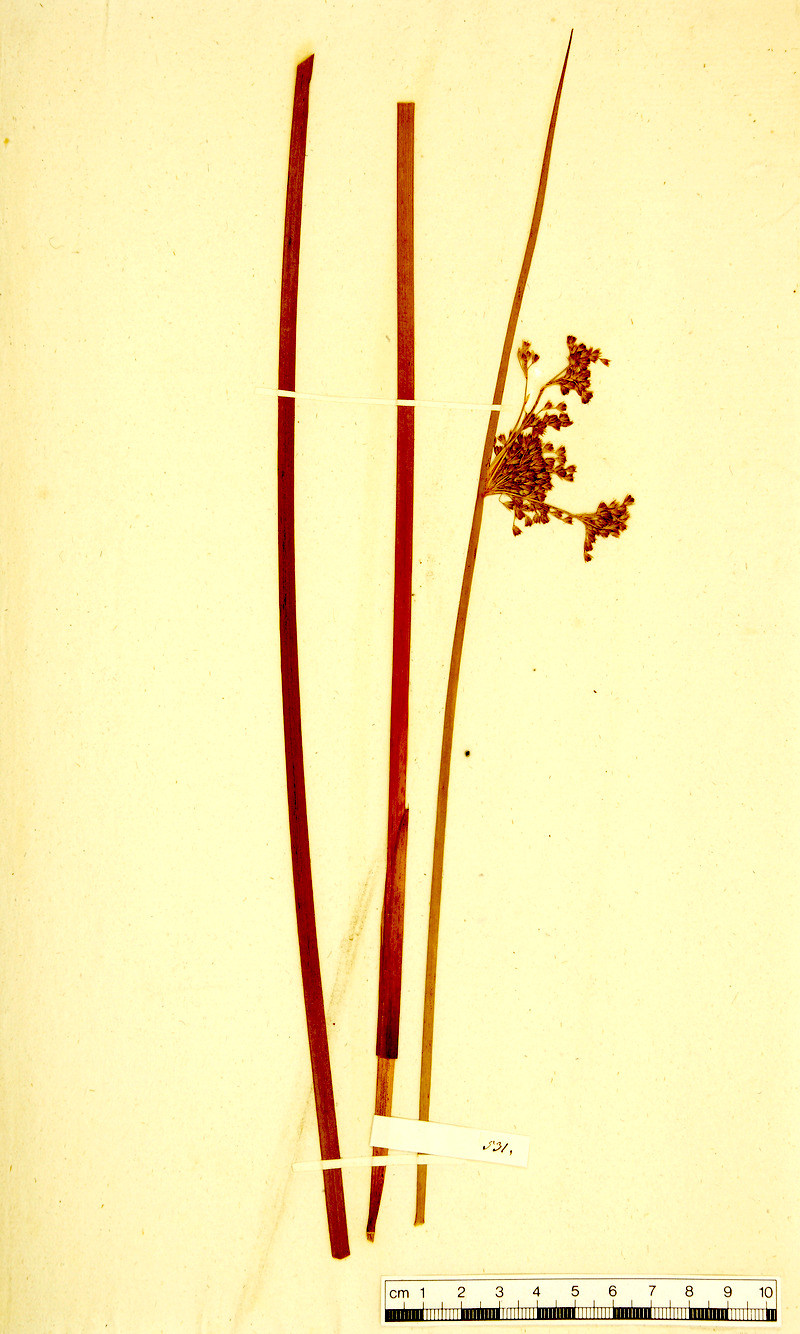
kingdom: Plantae
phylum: Tracheophyta
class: Liliopsida
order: Poales
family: Juncaceae
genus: Juncus
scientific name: Juncus effusus
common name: Soft rush
